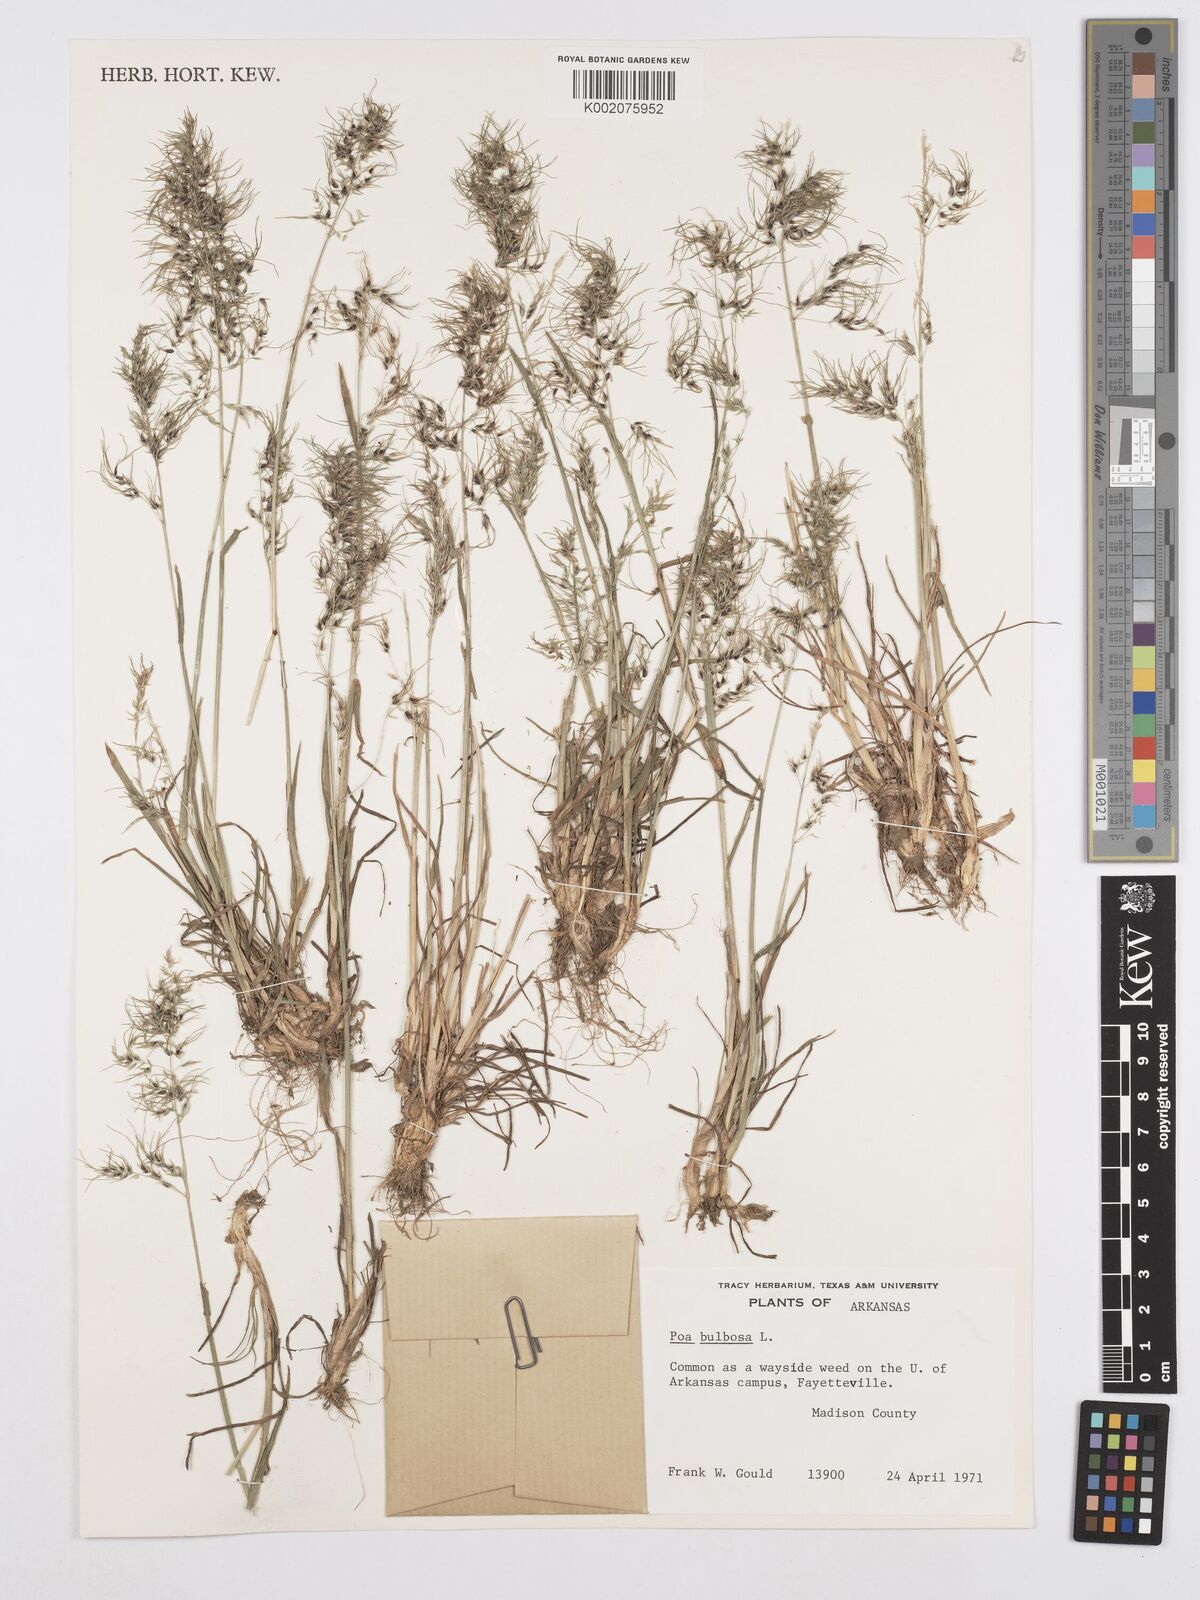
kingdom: Plantae
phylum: Tracheophyta
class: Liliopsida
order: Poales
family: Poaceae
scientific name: Poaceae
